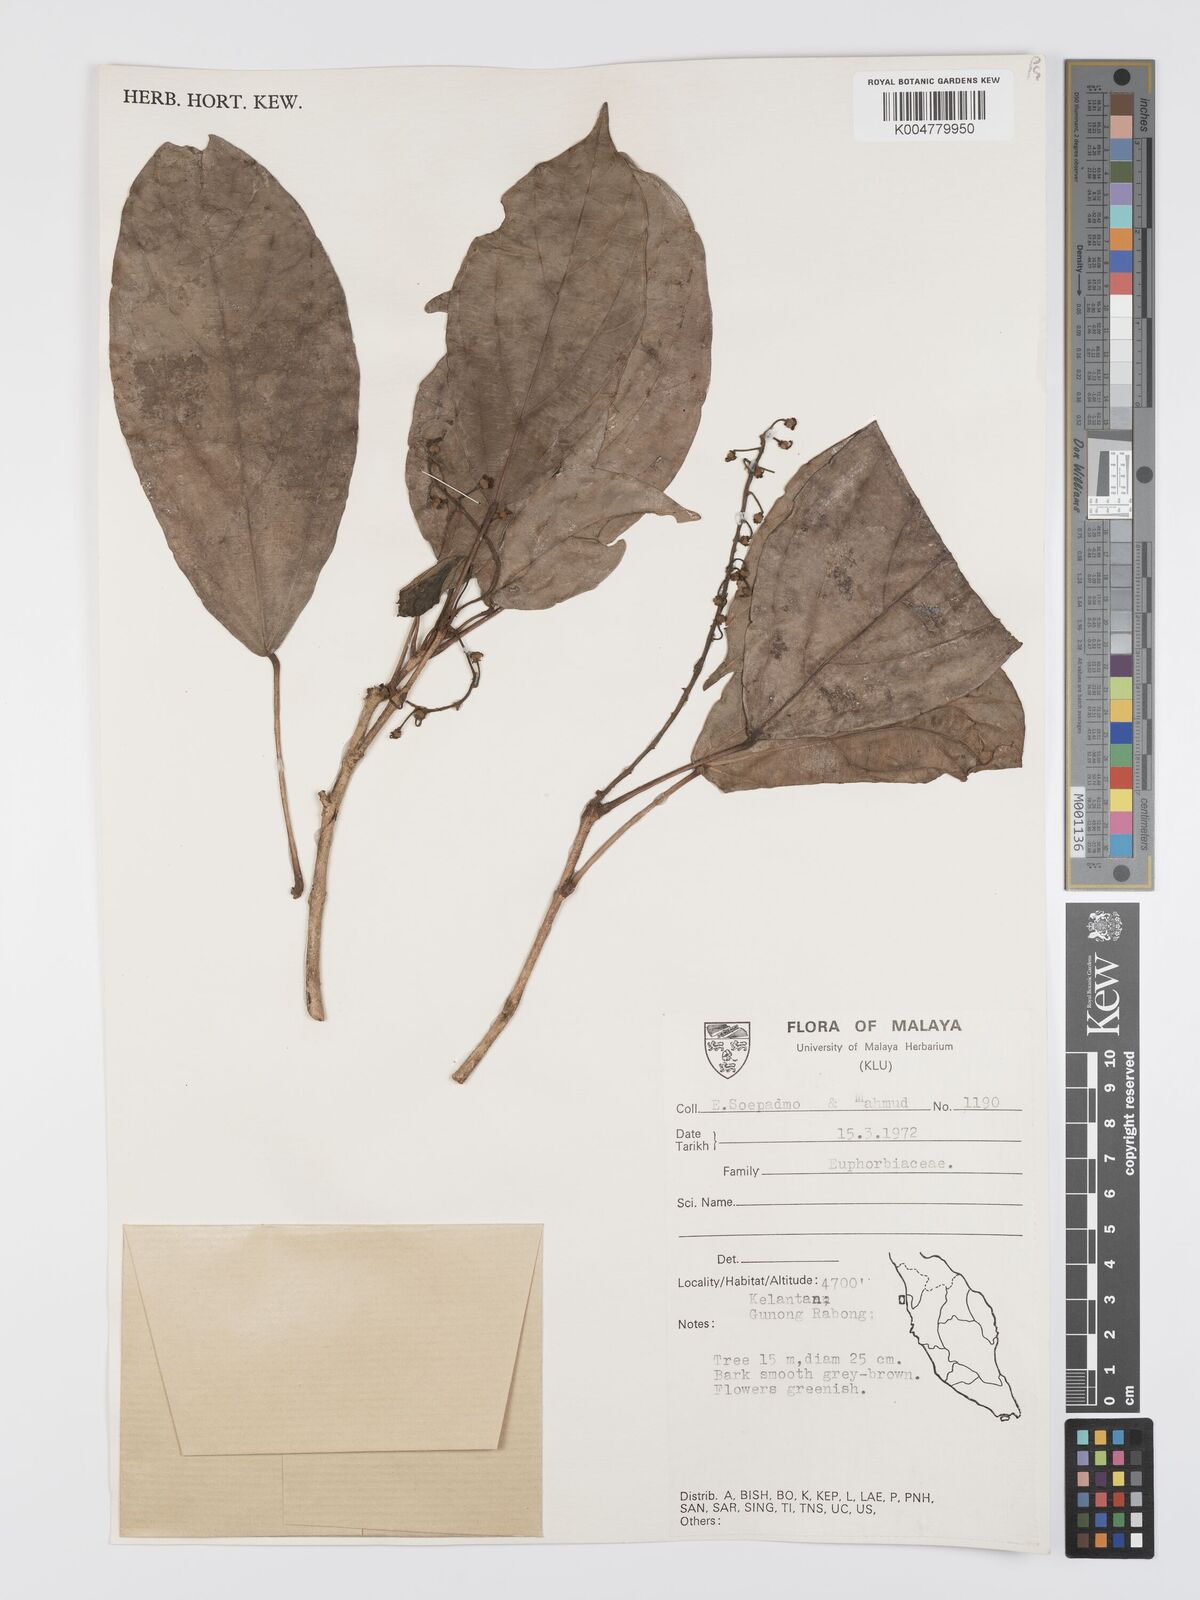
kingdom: Plantae
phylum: Tracheophyta
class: Magnoliopsida
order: Malpighiales
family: Euphorbiaceae
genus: Mallotus
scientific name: Mallotus leucodermis
